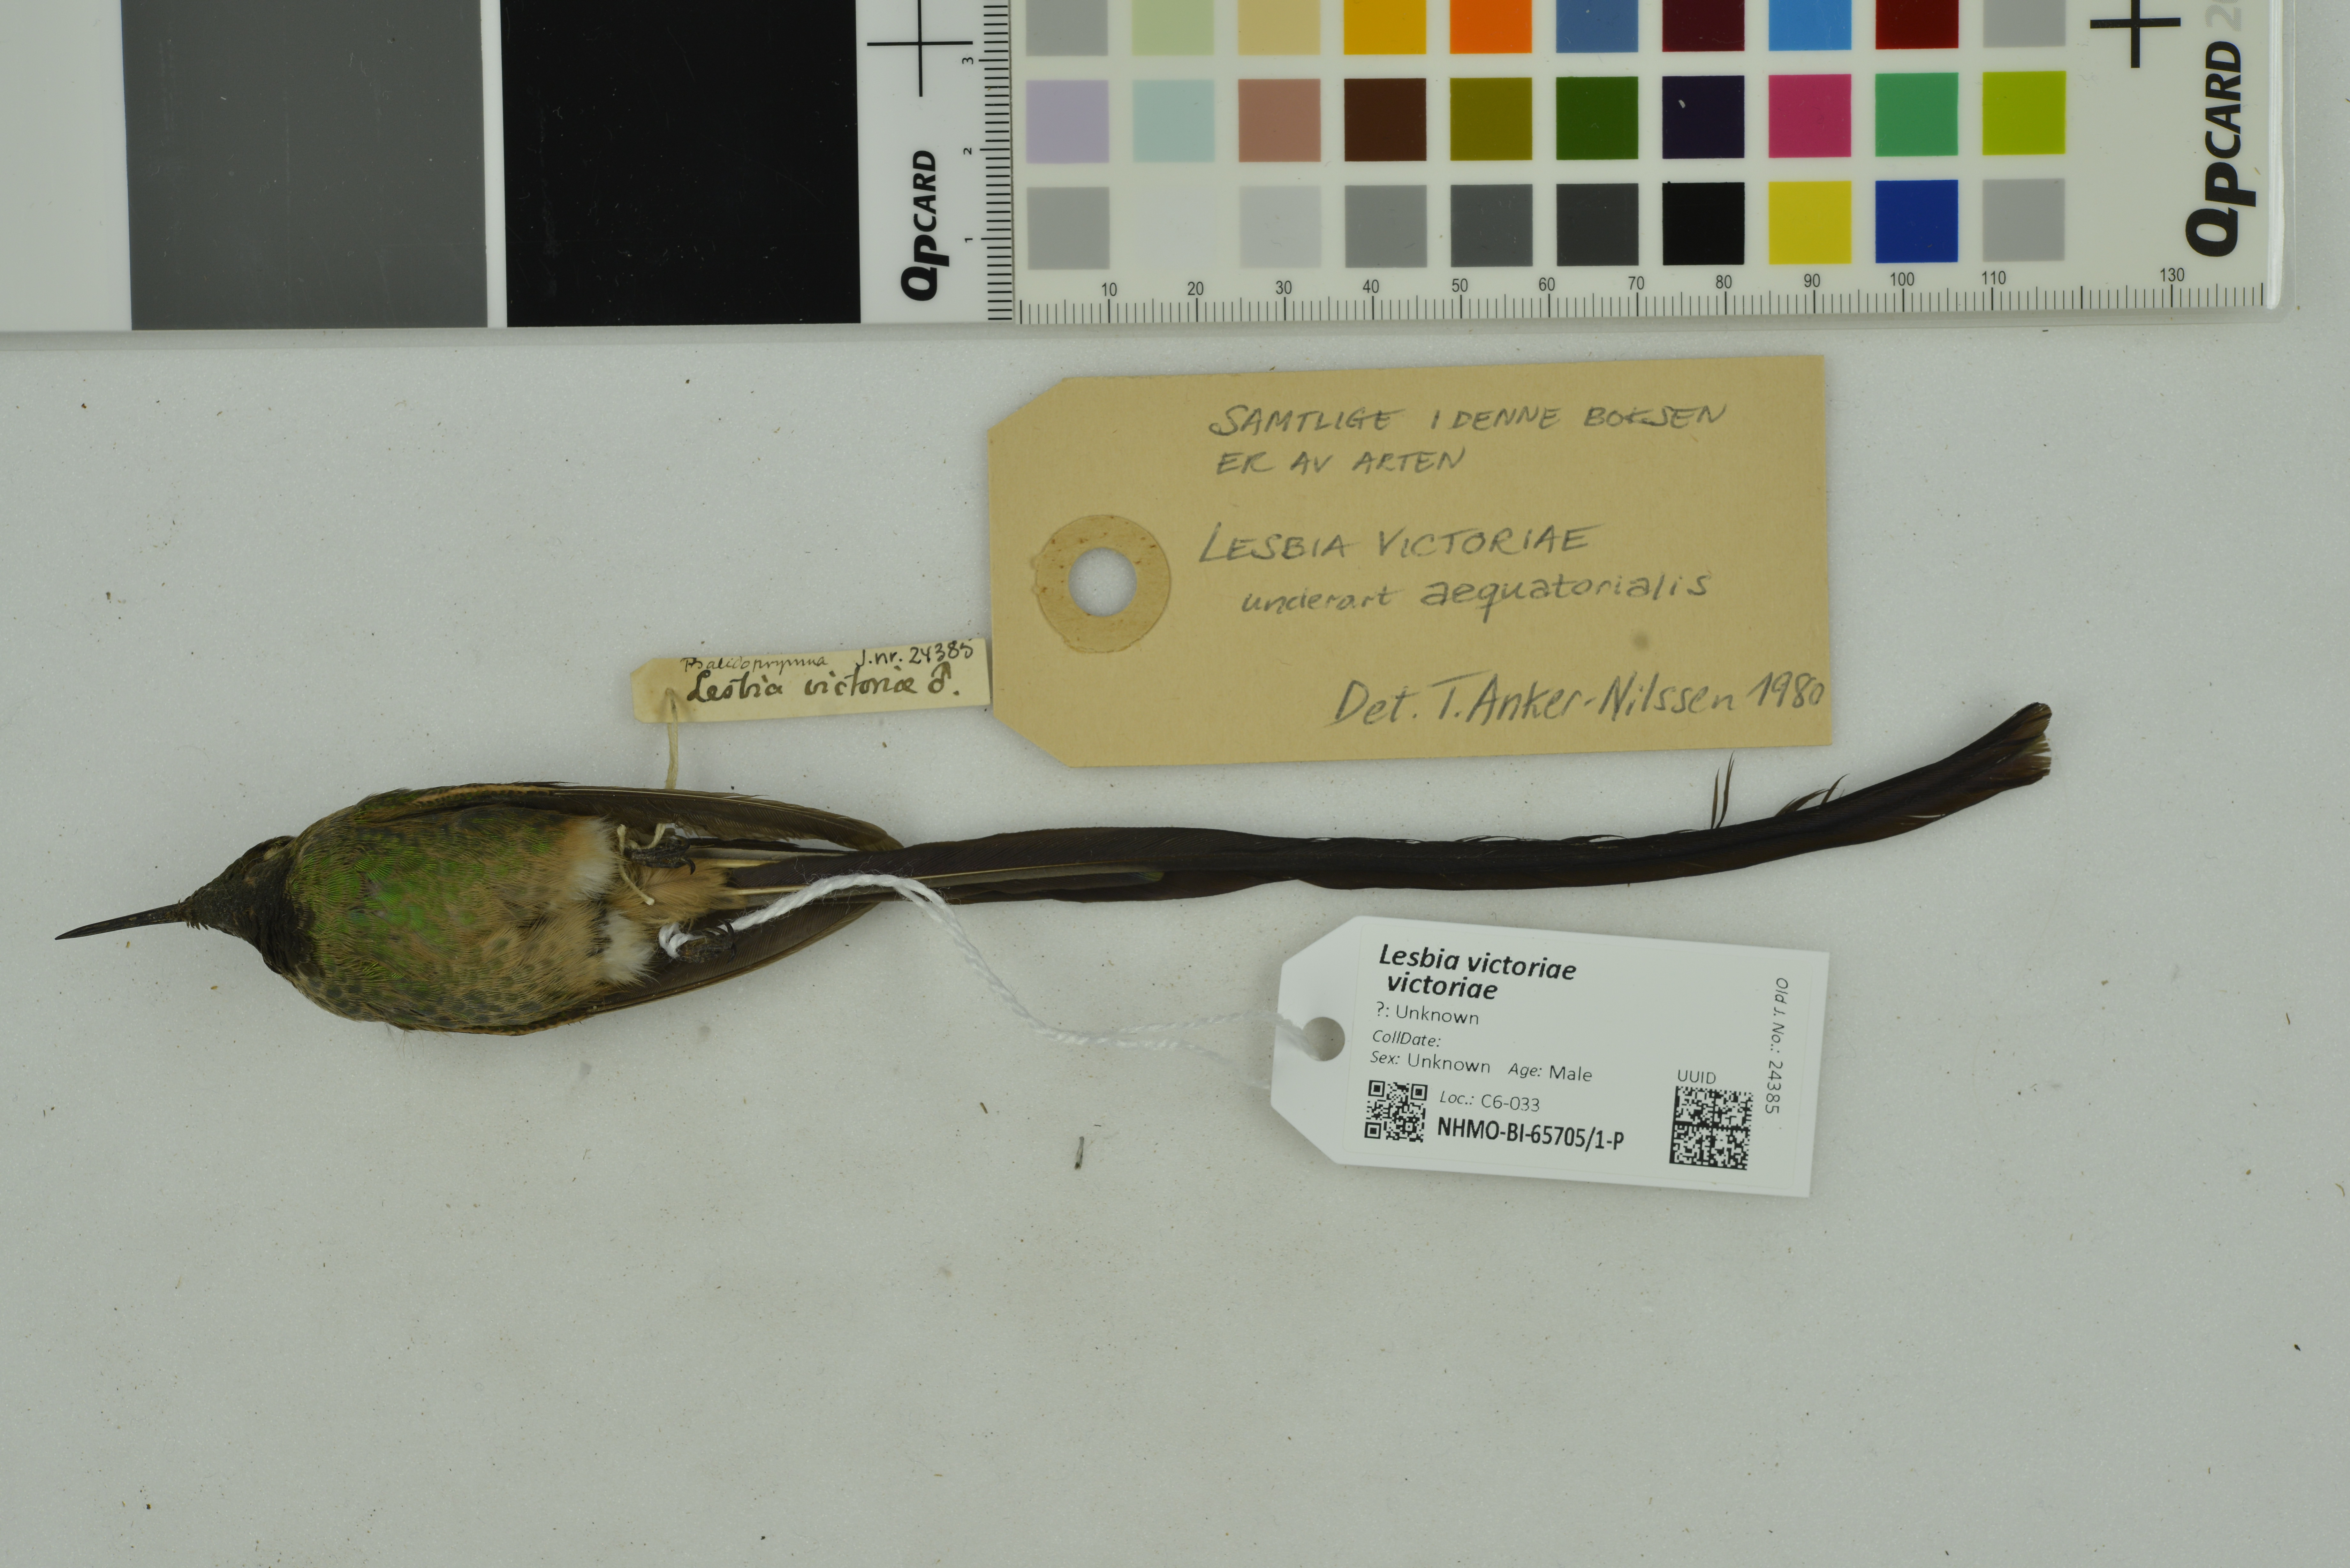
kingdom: Animalia
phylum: Chordata
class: Aves
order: Apodiformes
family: Trochilidae
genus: Lesbia
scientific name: Lesbia victoriae
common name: Black-tailed trainbearer
